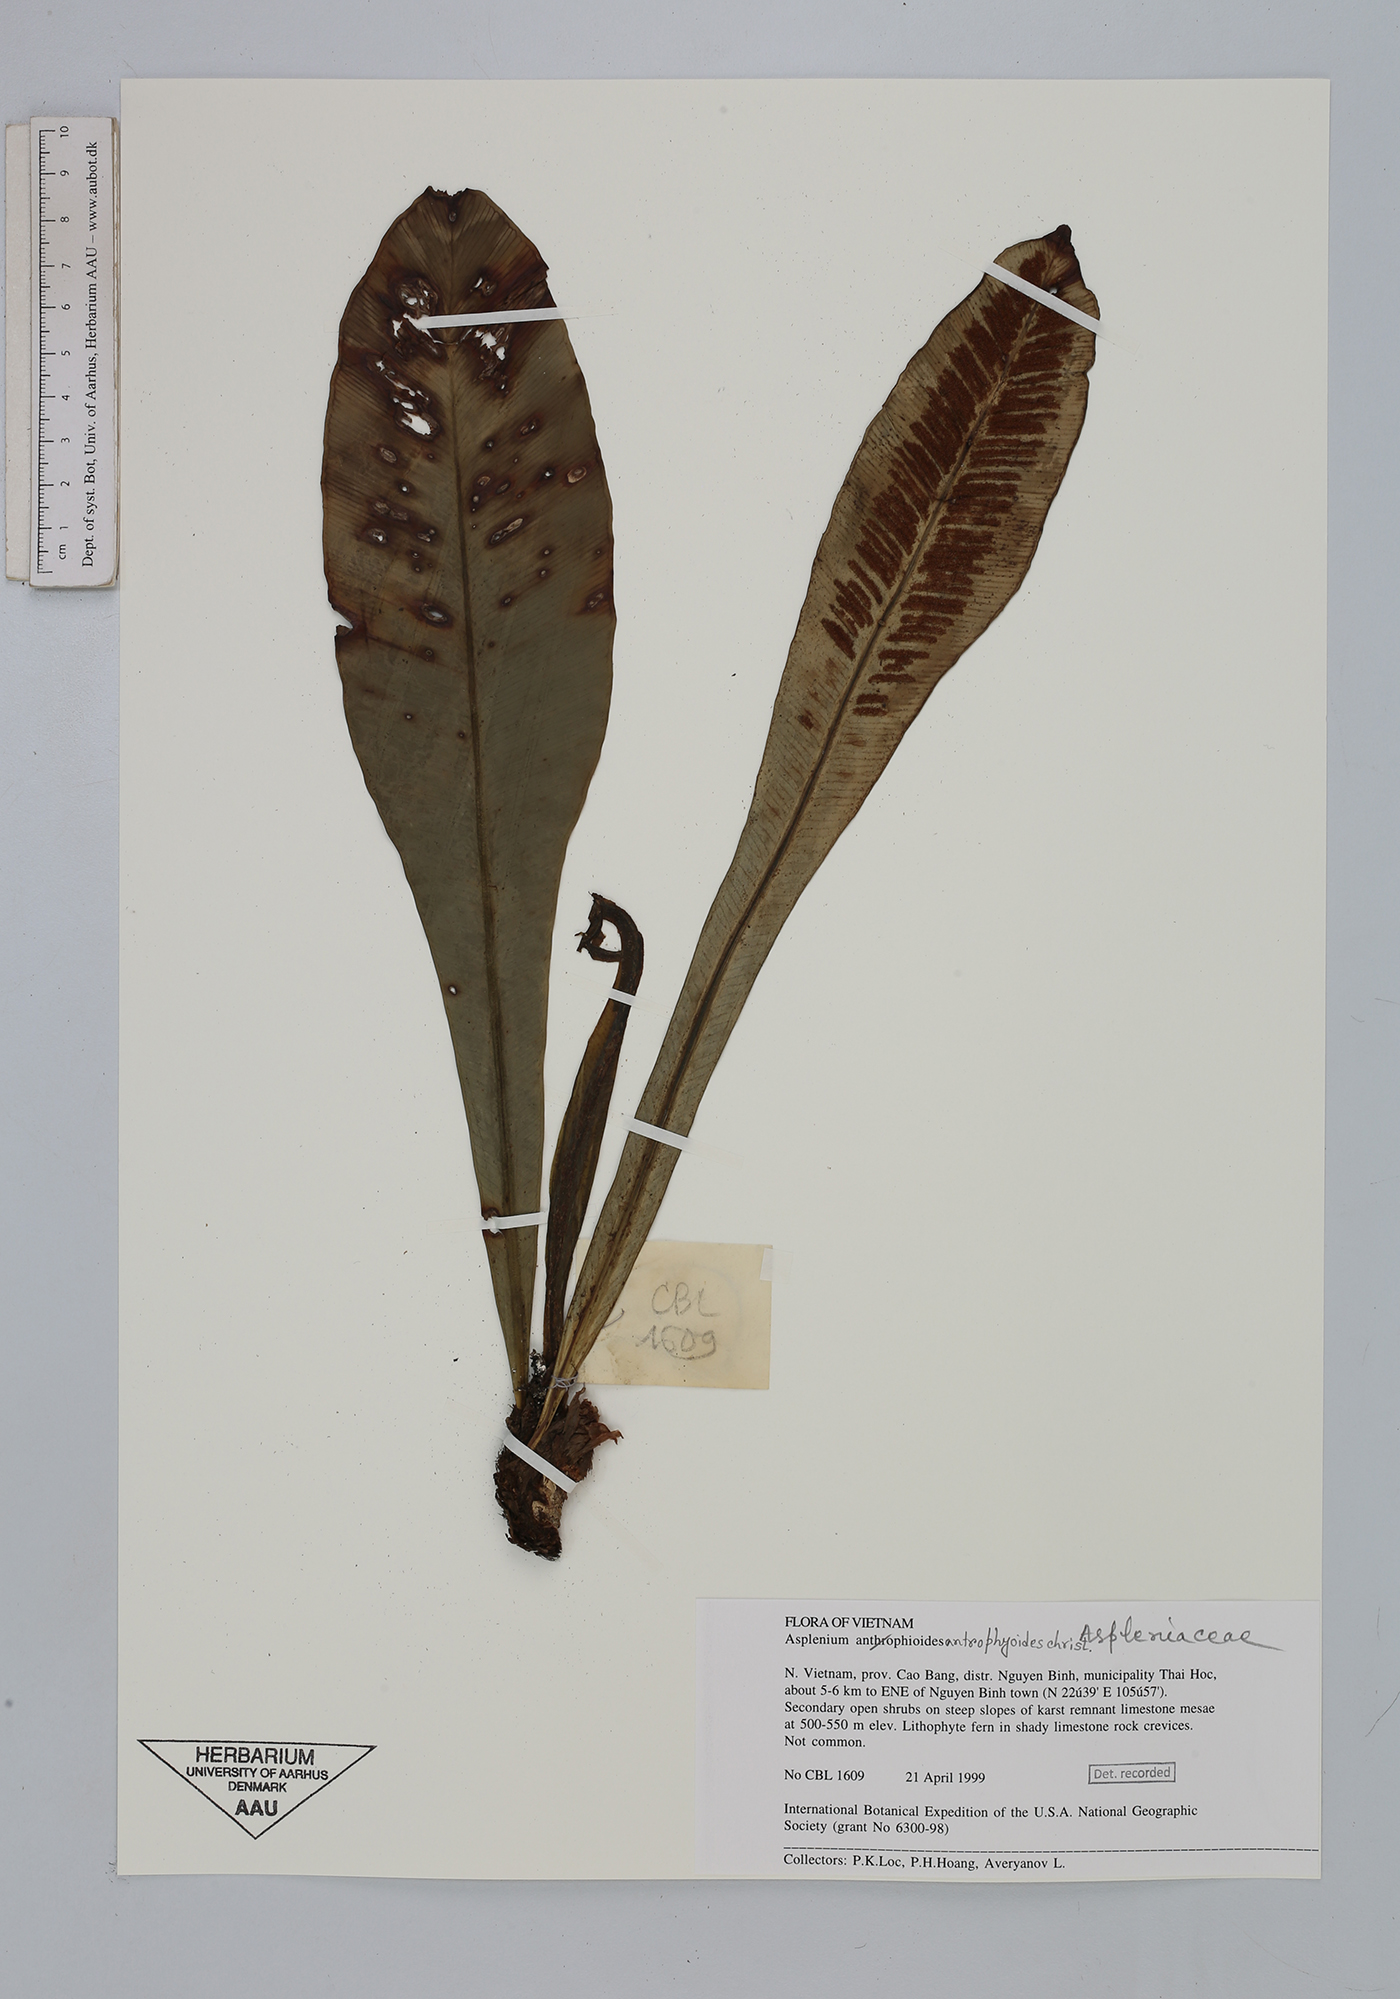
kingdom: Plantae
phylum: Tracheophyta
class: Polypodiopsida
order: Polypodiales
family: Aspleniaceae
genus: Asplenium
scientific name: Asplenium antrophyoides
